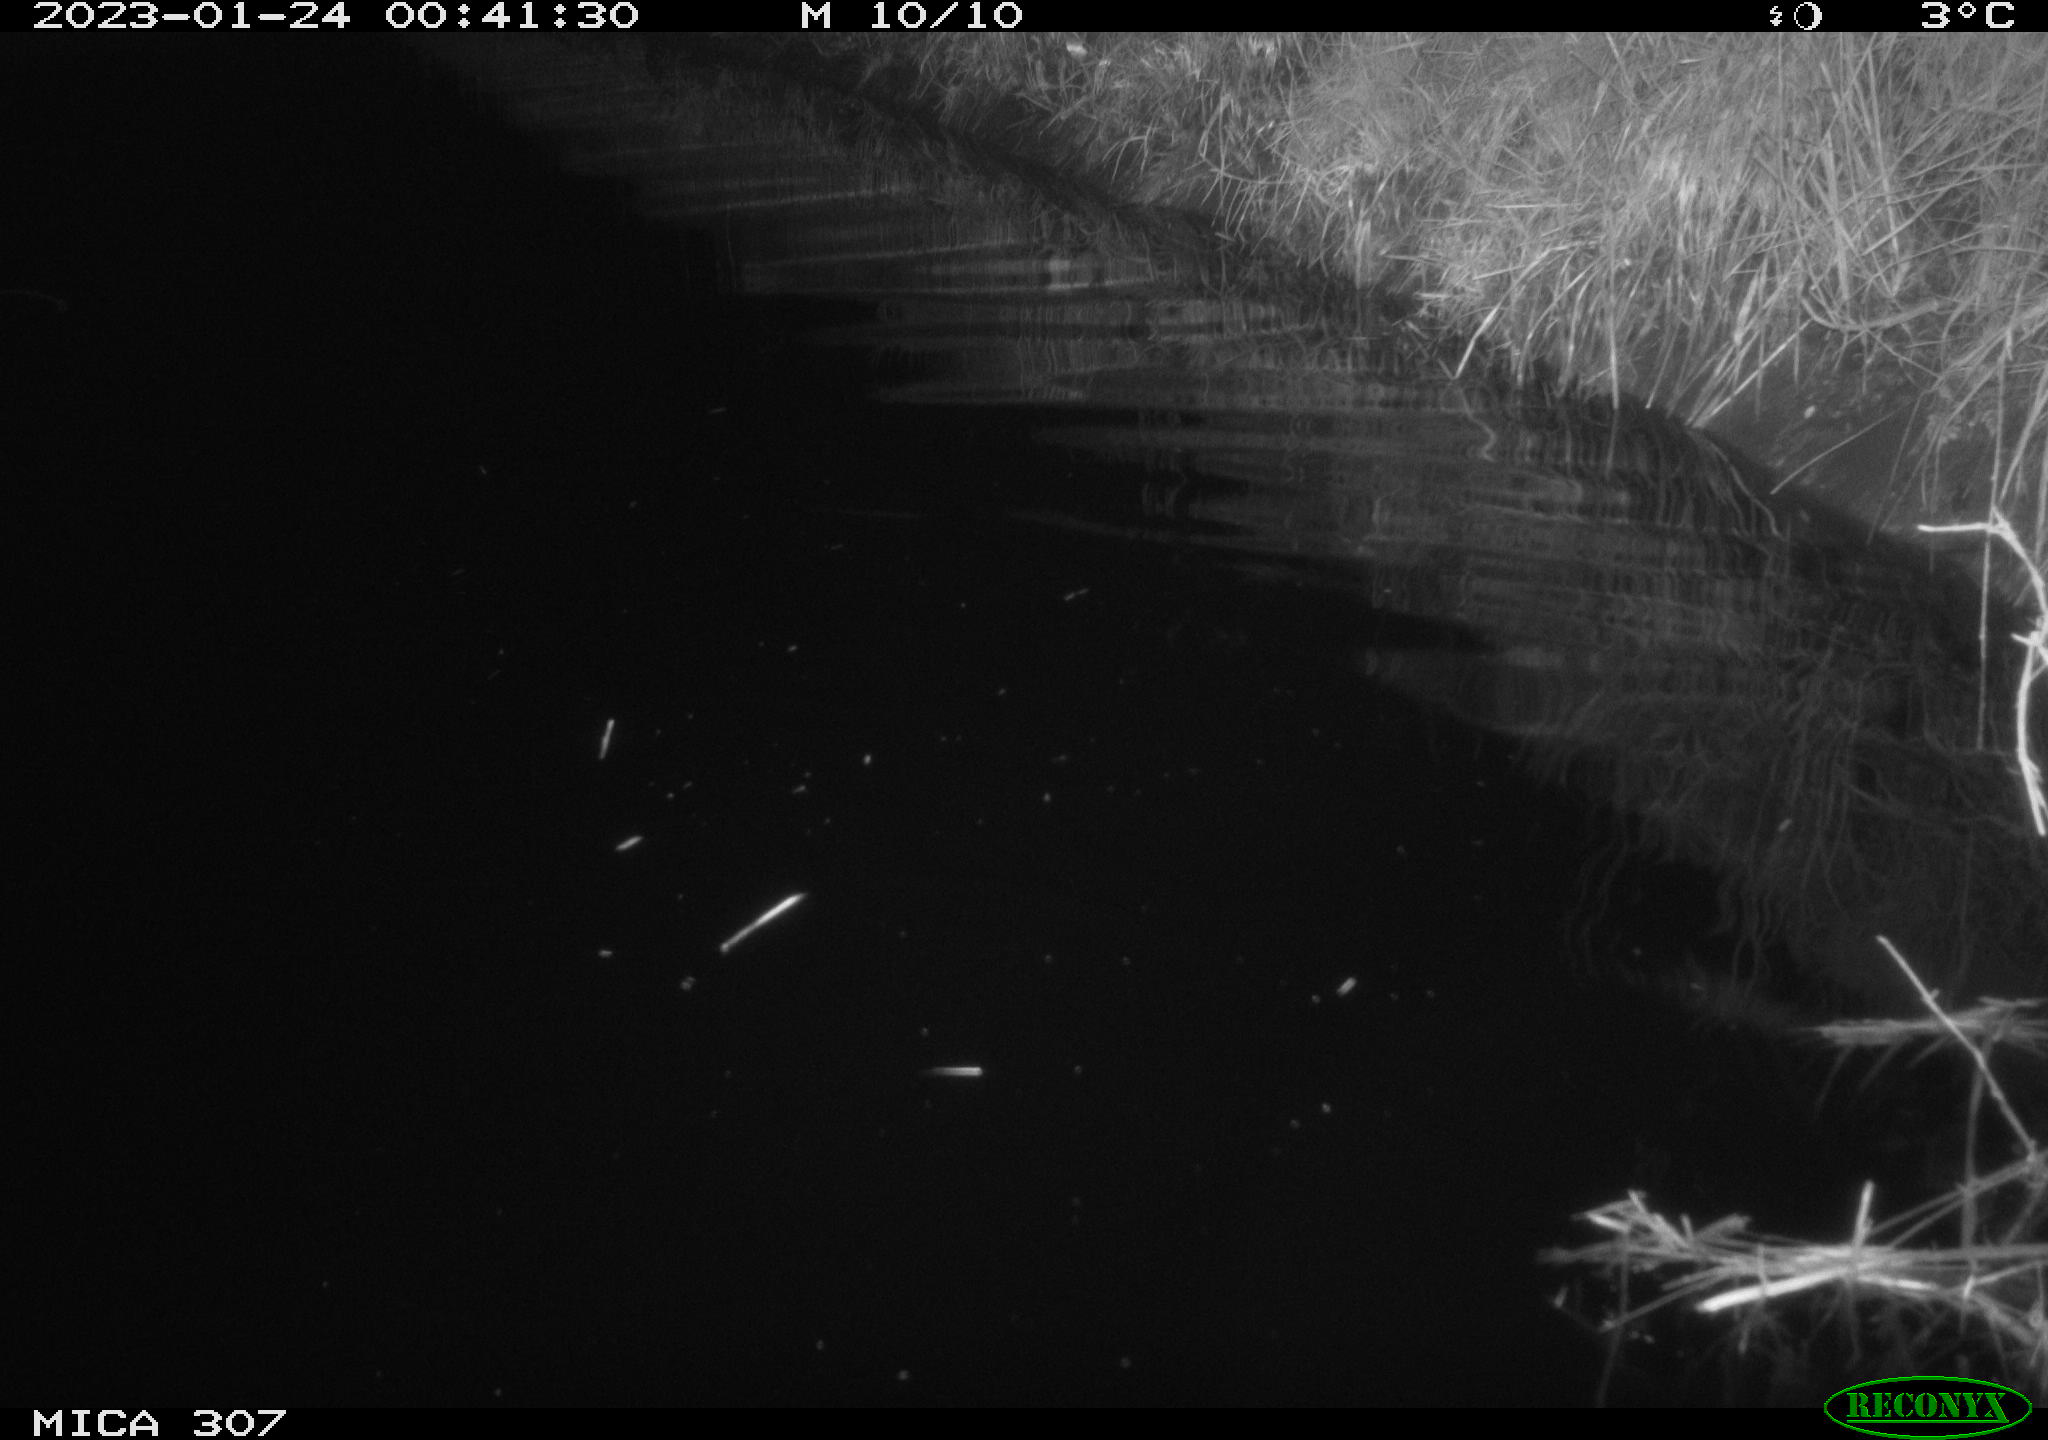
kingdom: Animalia
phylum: Chordata
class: Aves
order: Anseriformes
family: Anatidae
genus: Anas
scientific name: Anas
